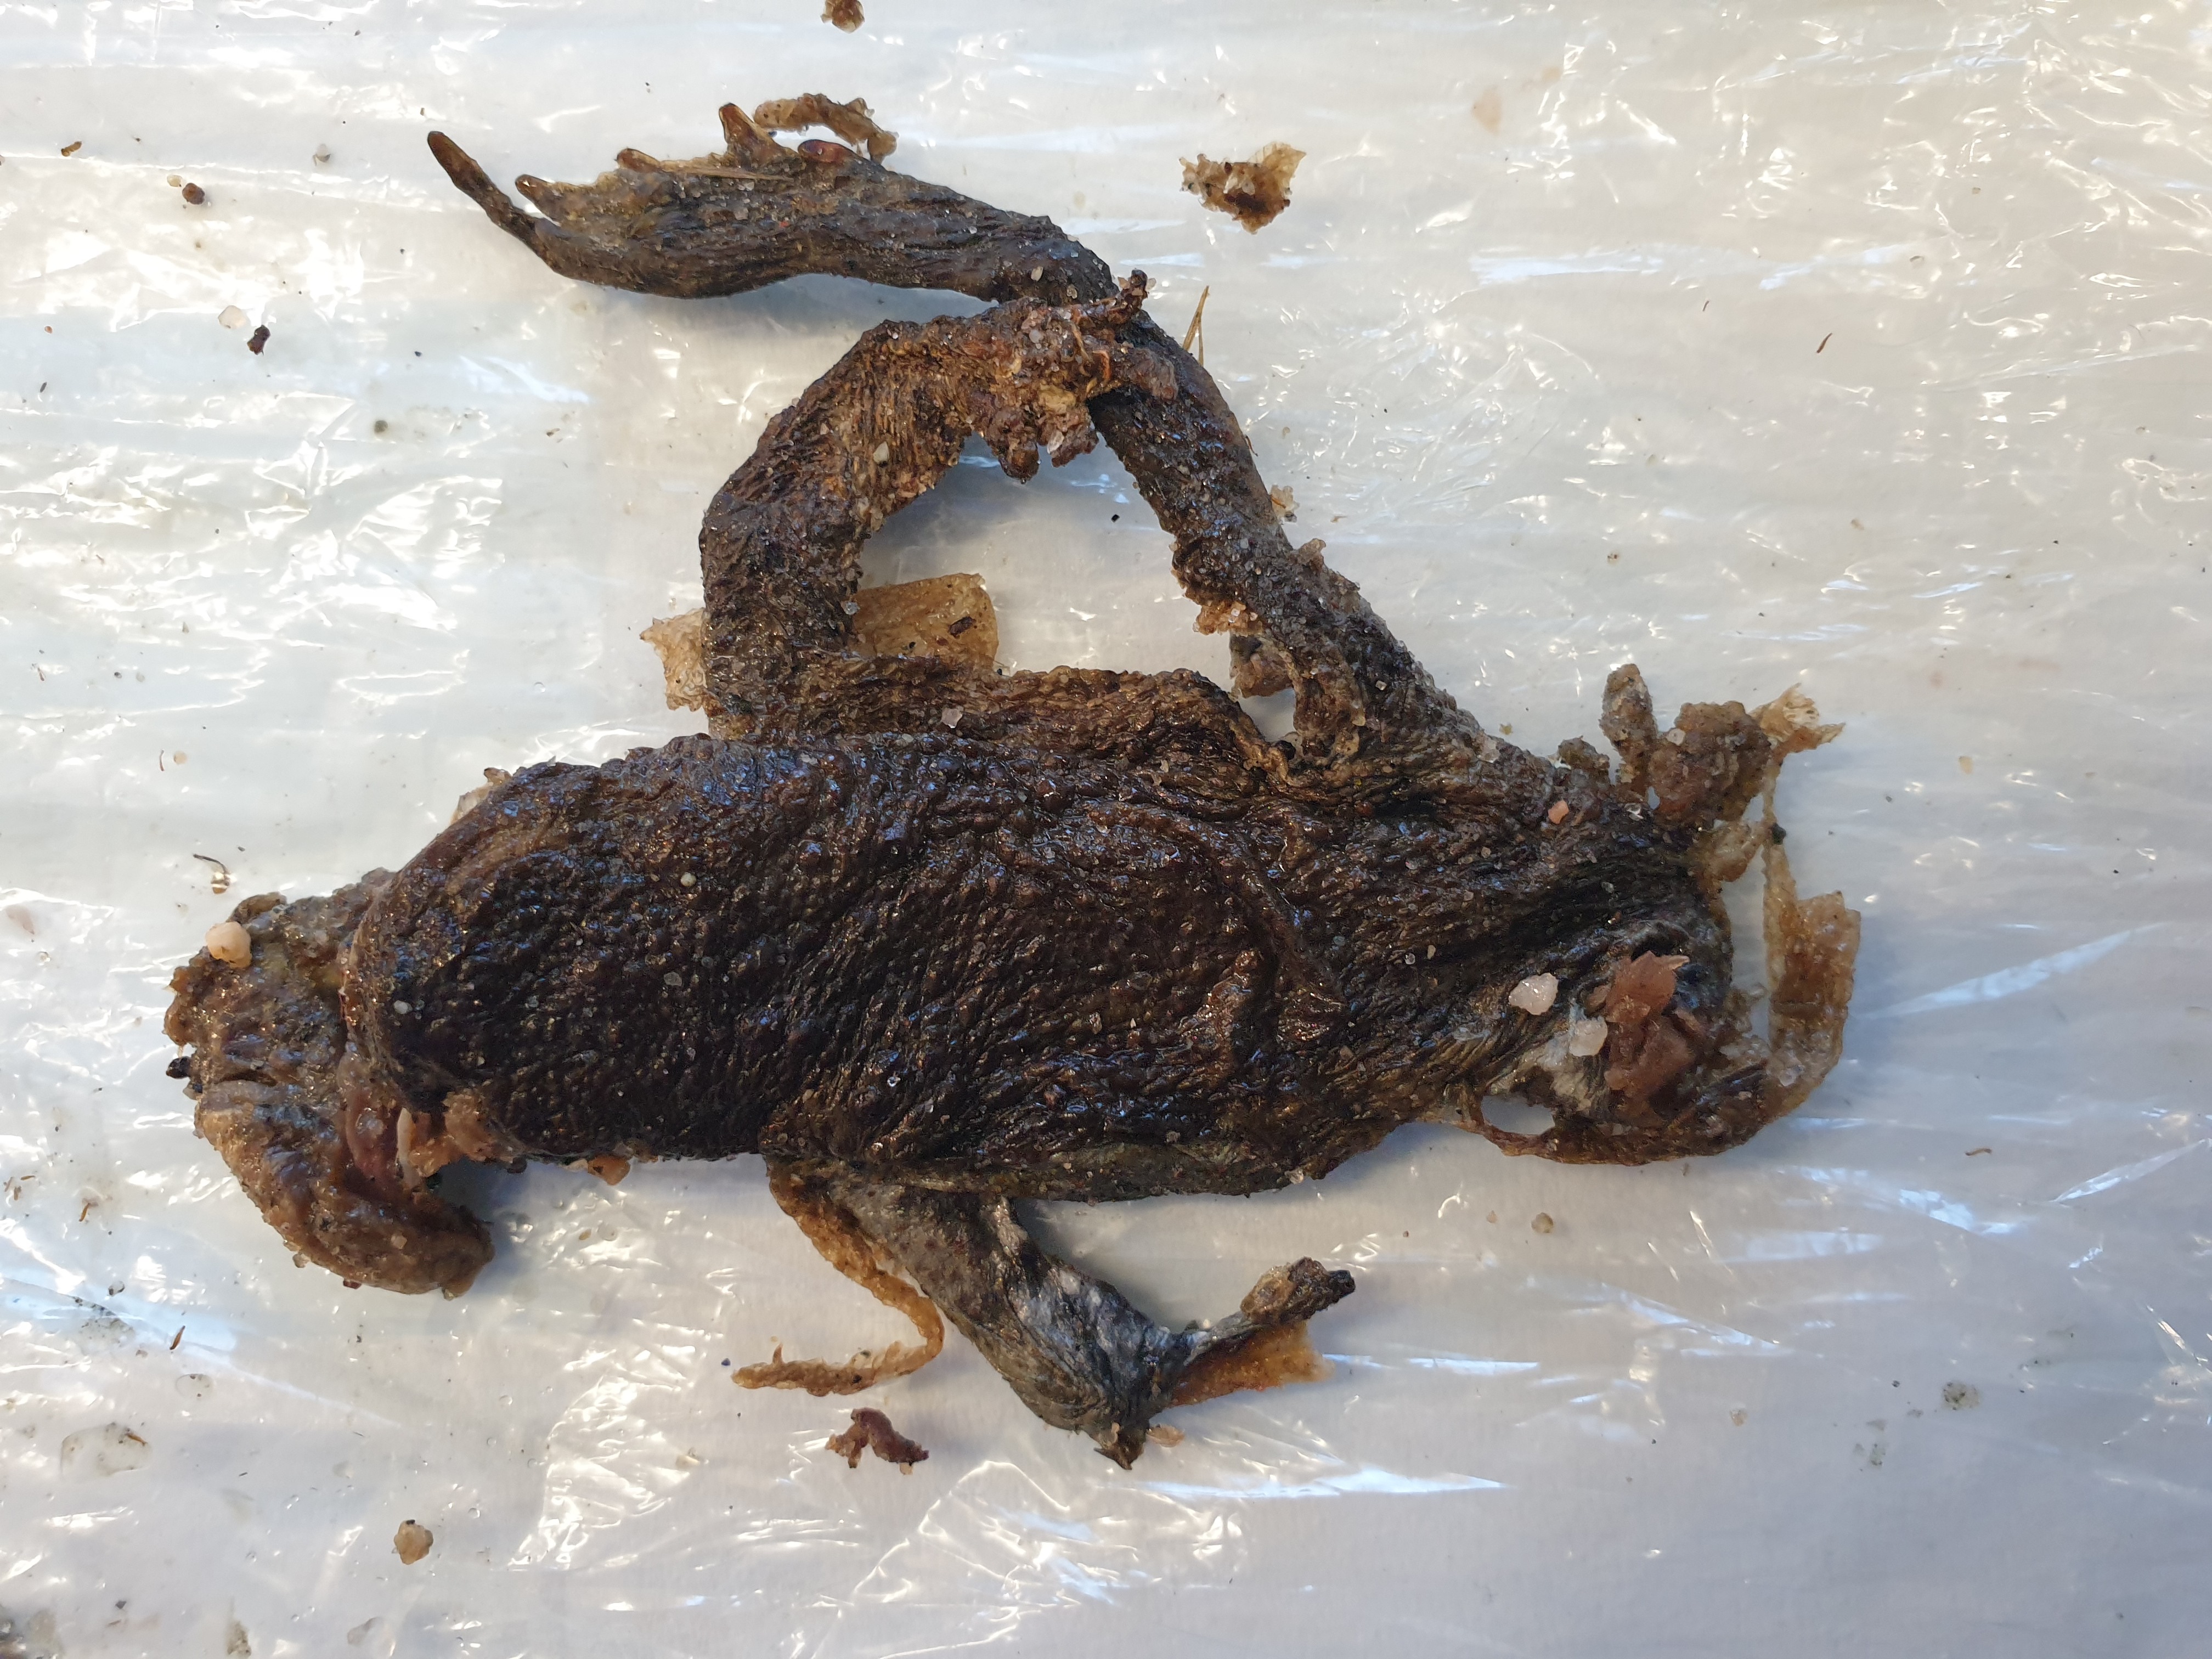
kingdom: Animalia
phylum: Chordata
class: Amphibia
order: Anura
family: Bufonidae
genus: Bufo
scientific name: Bufo bufo
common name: Common toad
